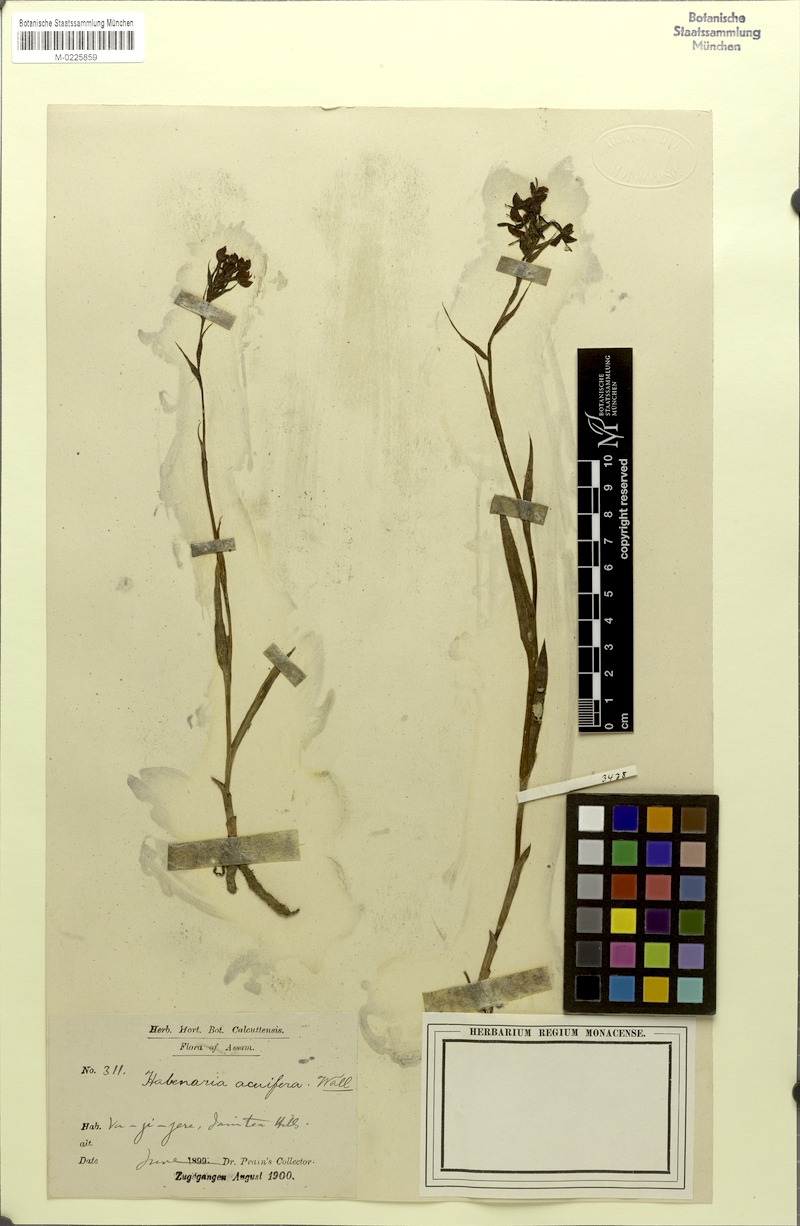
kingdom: Plantae
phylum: Tracheophyta
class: Liliopsida
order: Asparagales
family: Orchidaceae
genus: Habenaria
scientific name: Habenaria acuifera
